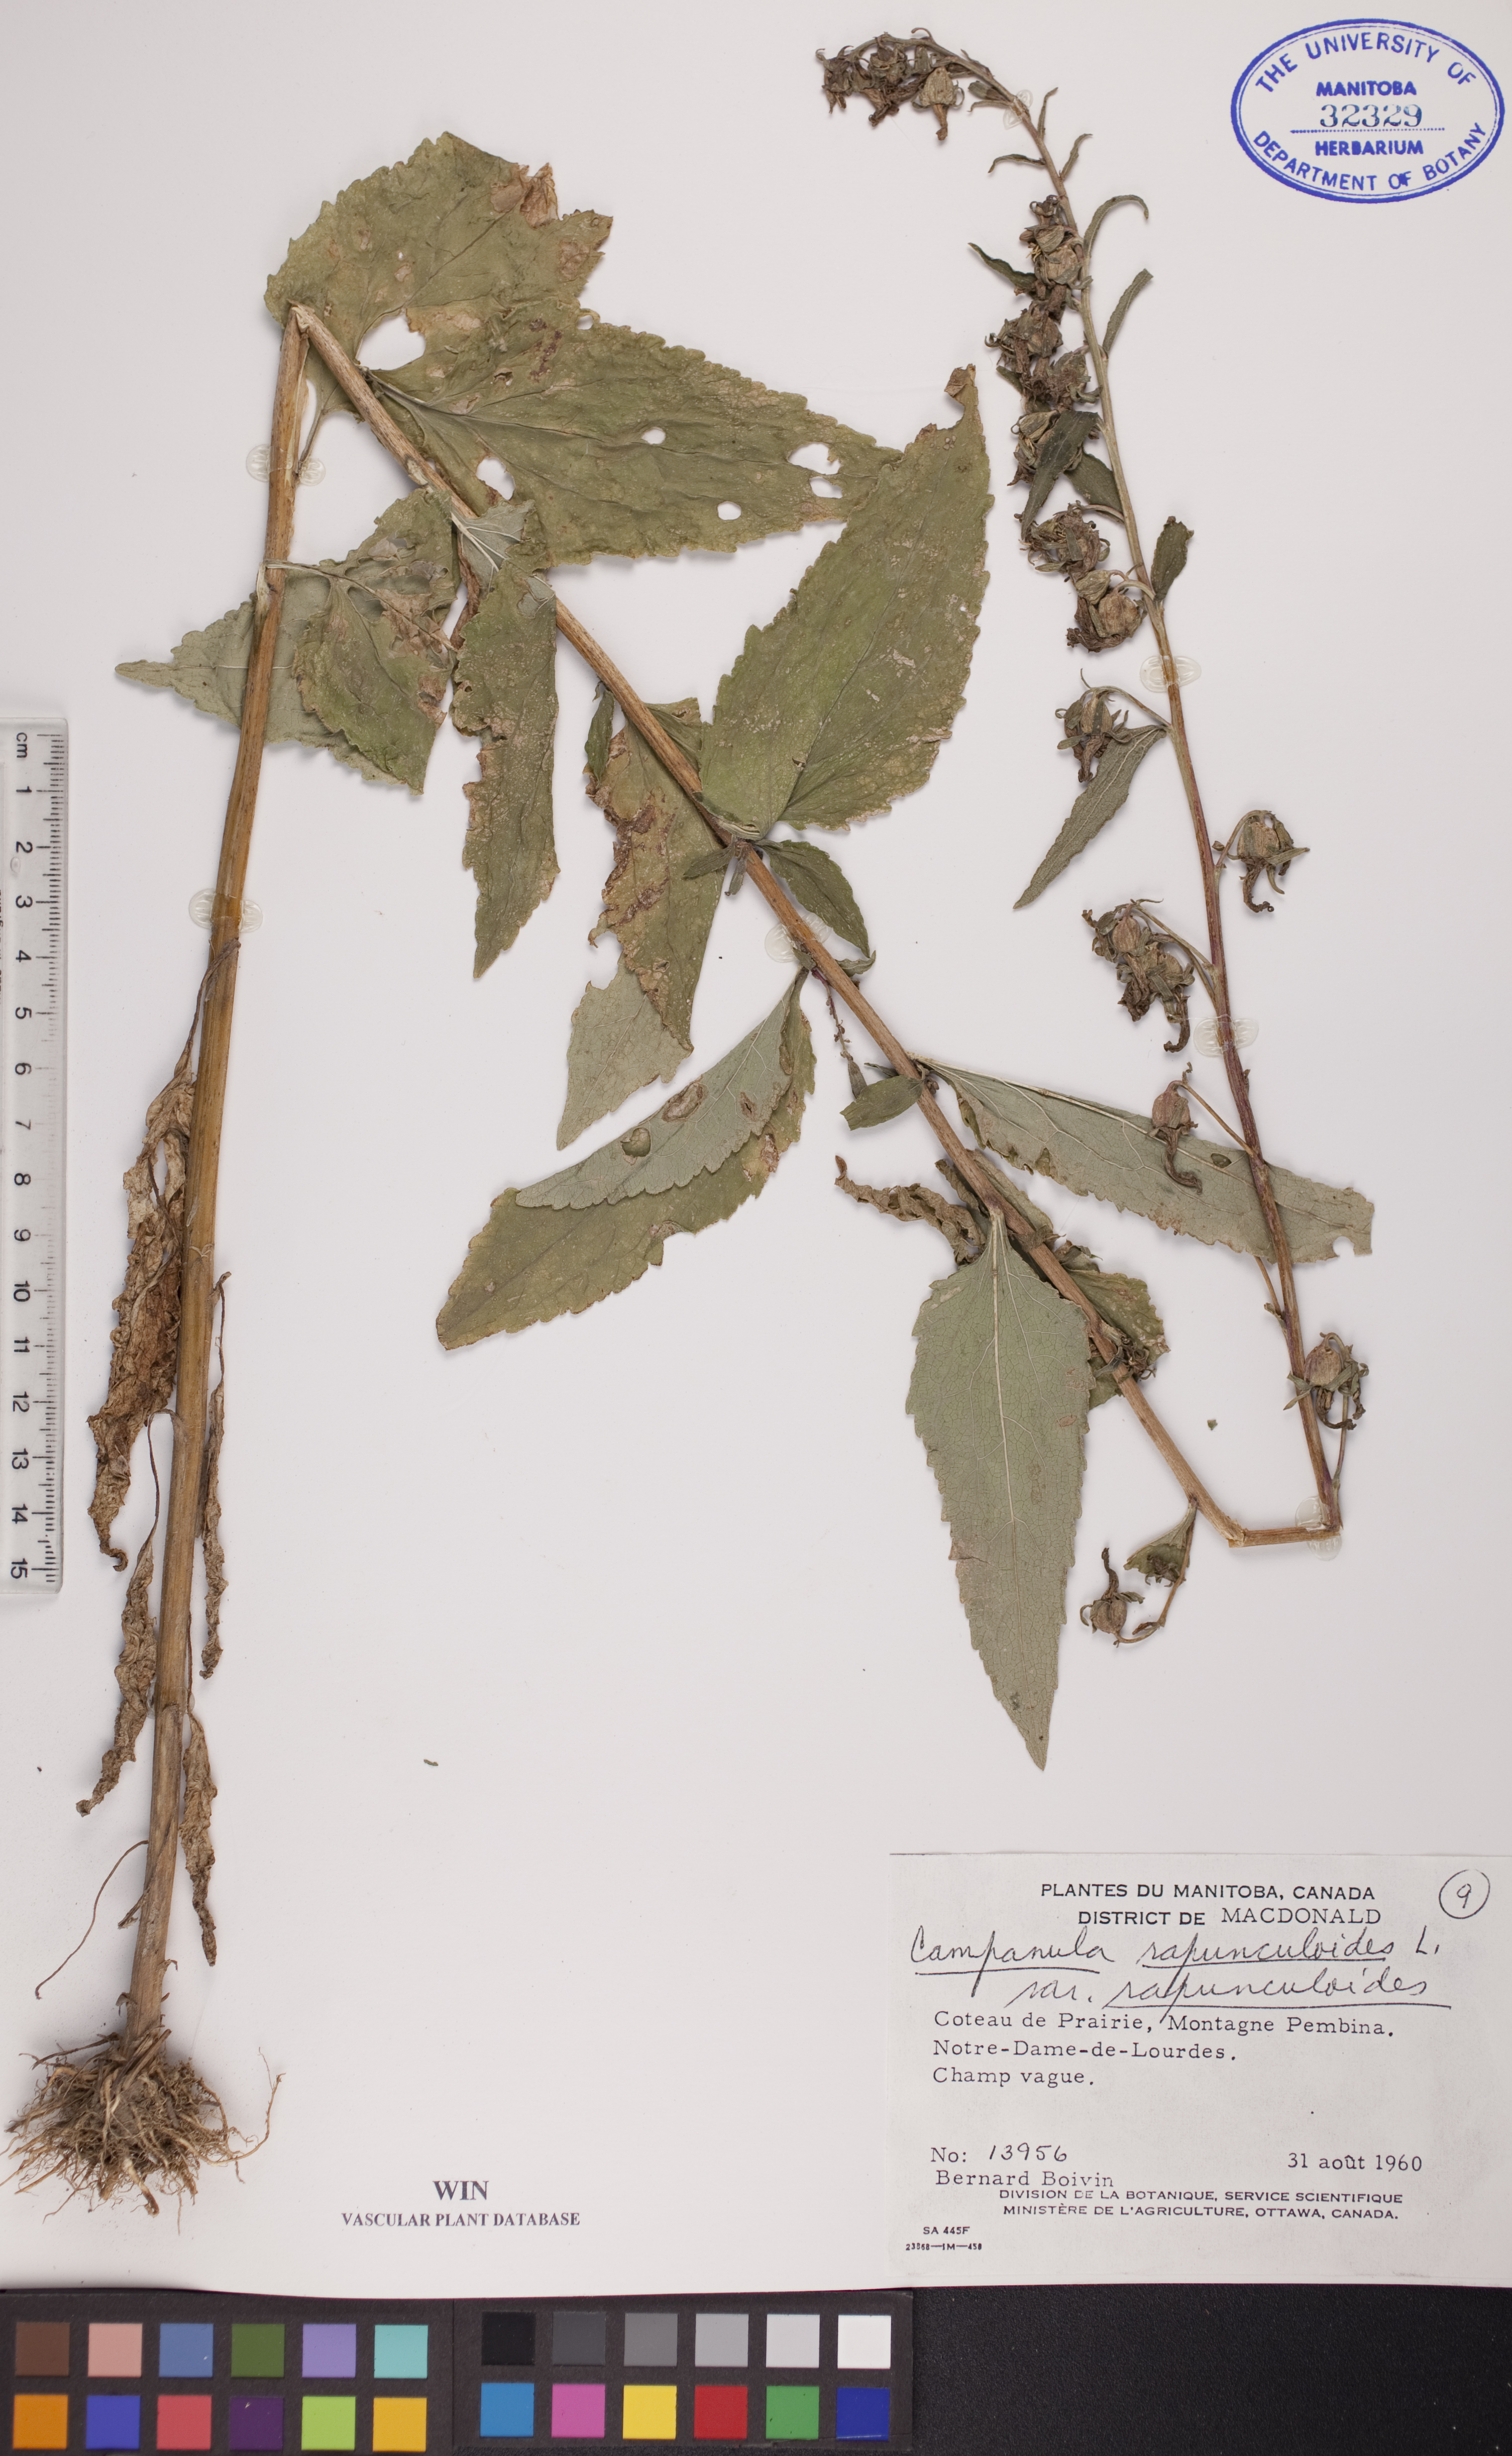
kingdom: Plantae
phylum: Tracheophyta
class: Magnoliopsida
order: Asterales
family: Campanulaceae
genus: Campanula
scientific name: Campanula rapunculoides
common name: Creeping bellflower
